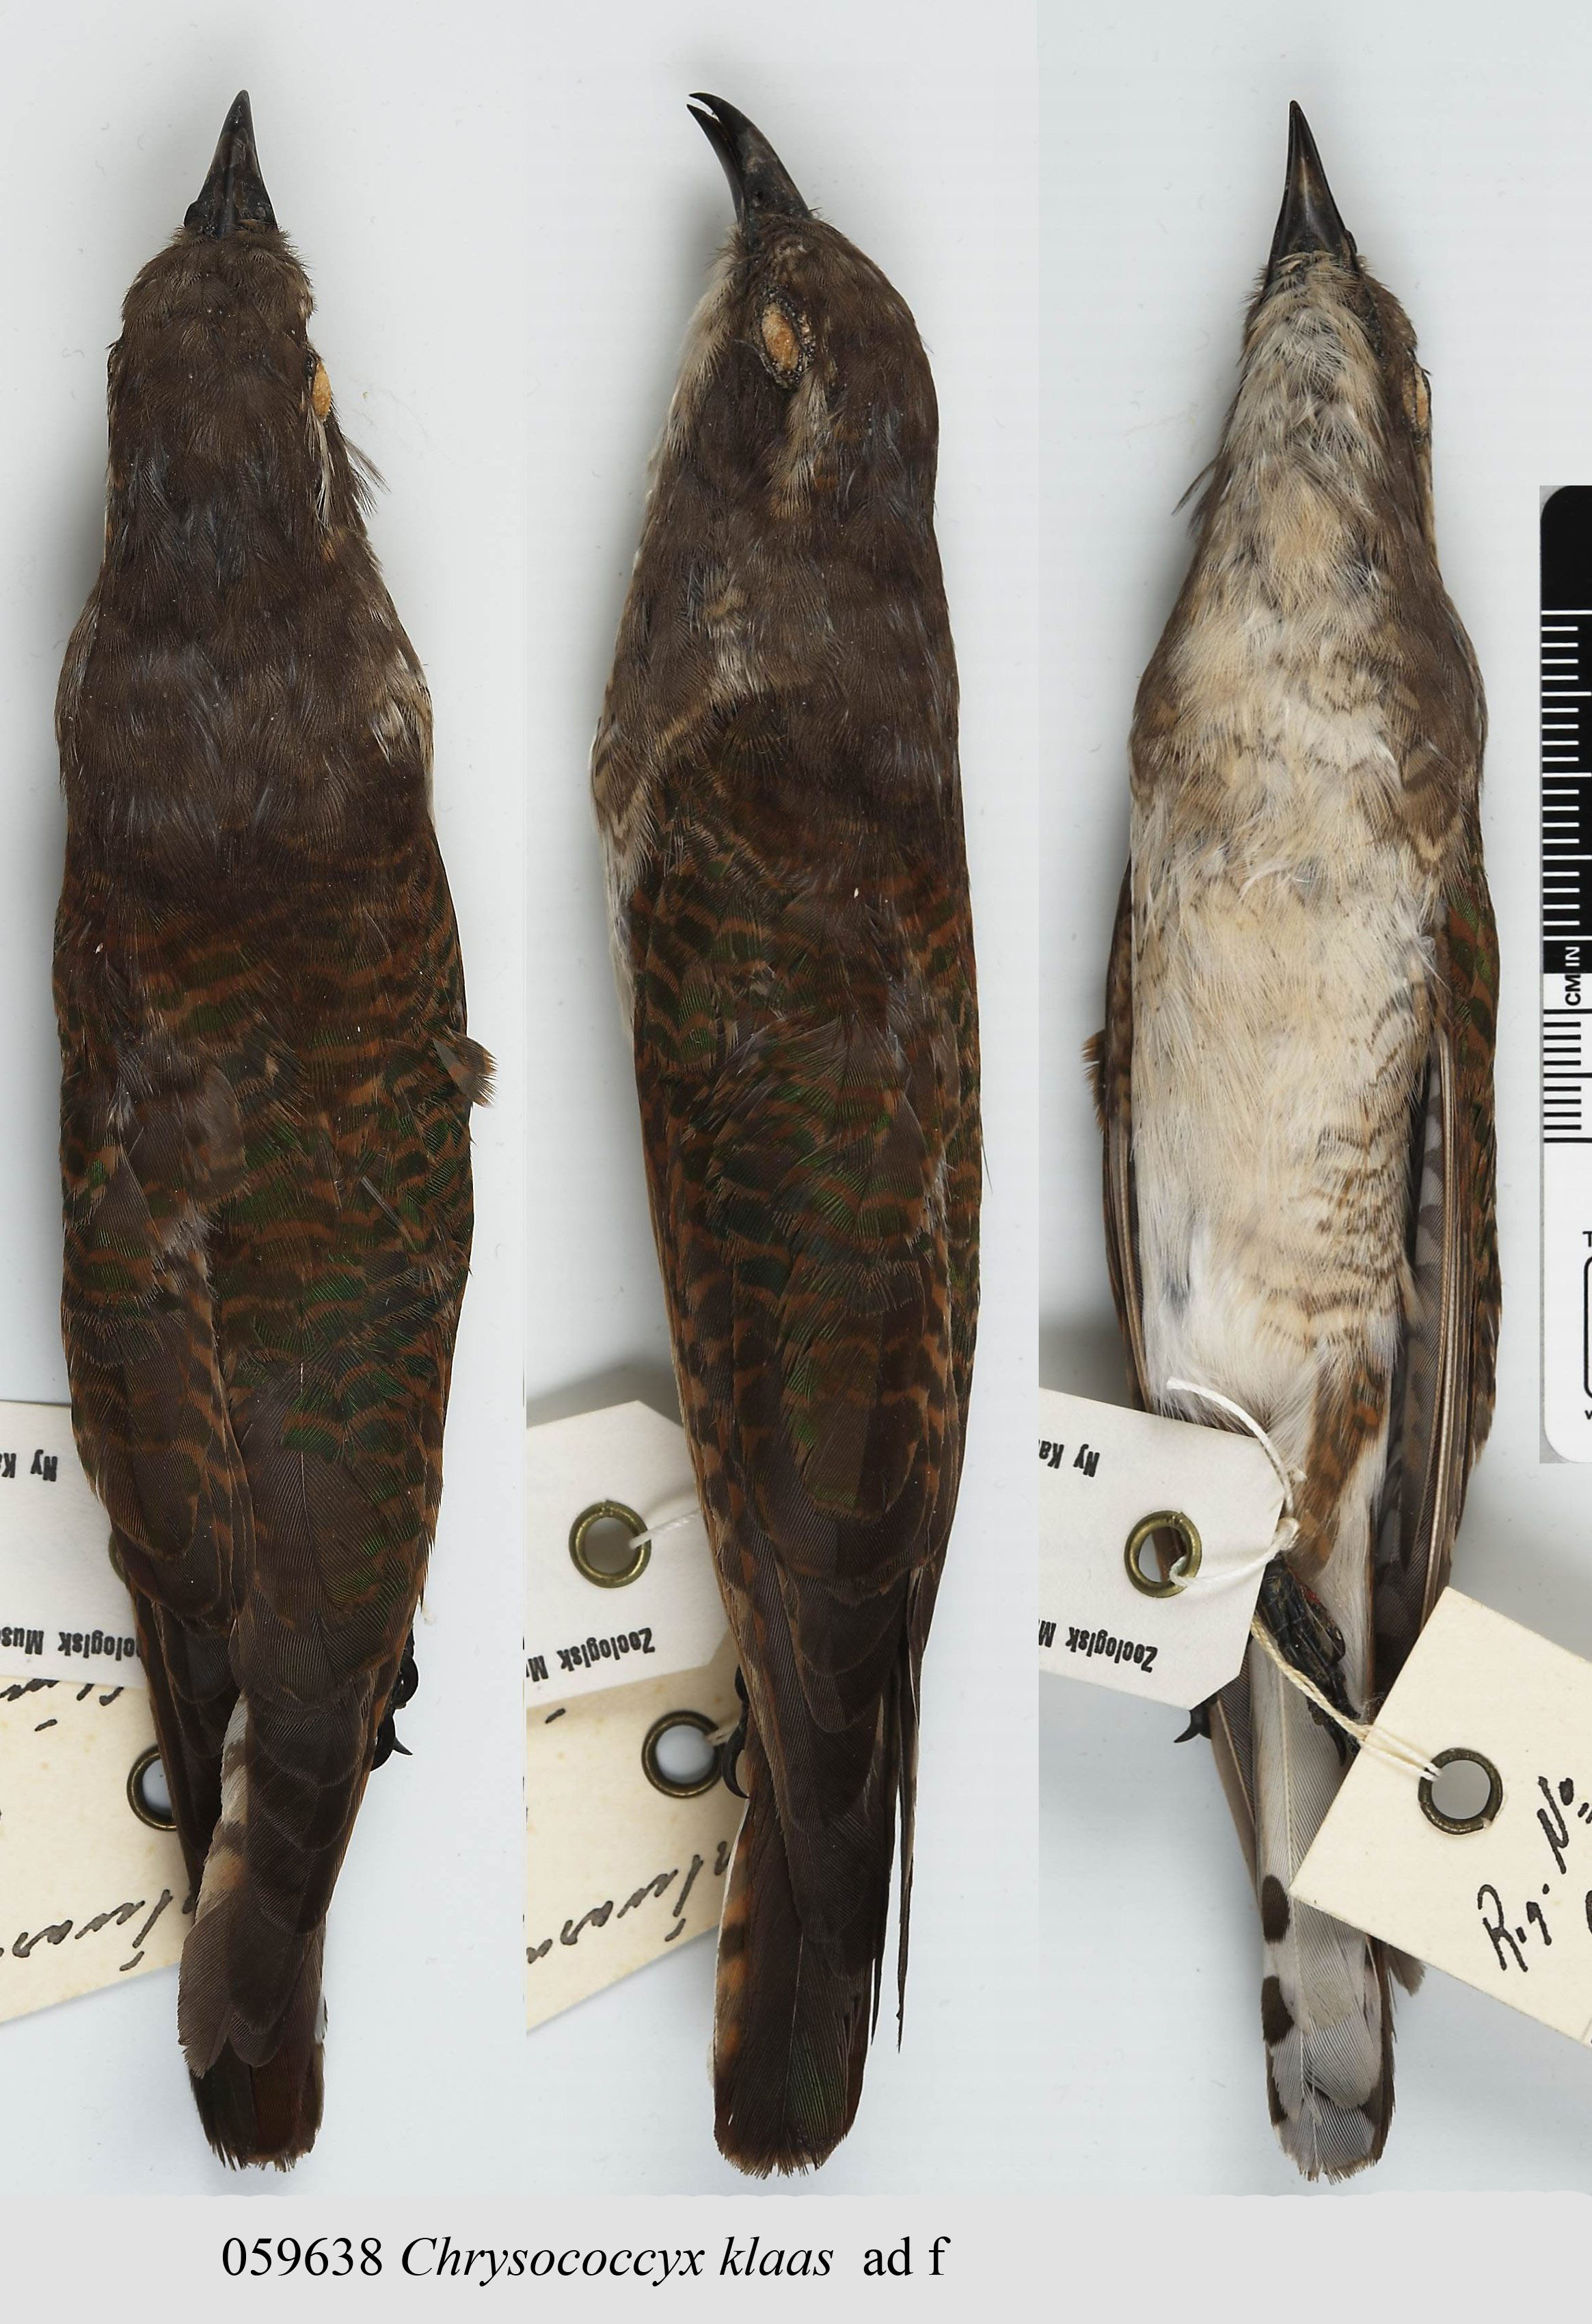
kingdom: Animalia
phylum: Chordata
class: Aves
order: Cuculiformes
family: Cuculidae
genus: Chrysococcyx
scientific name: Chrysococcyx klaas
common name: Klaas's cuckoo
